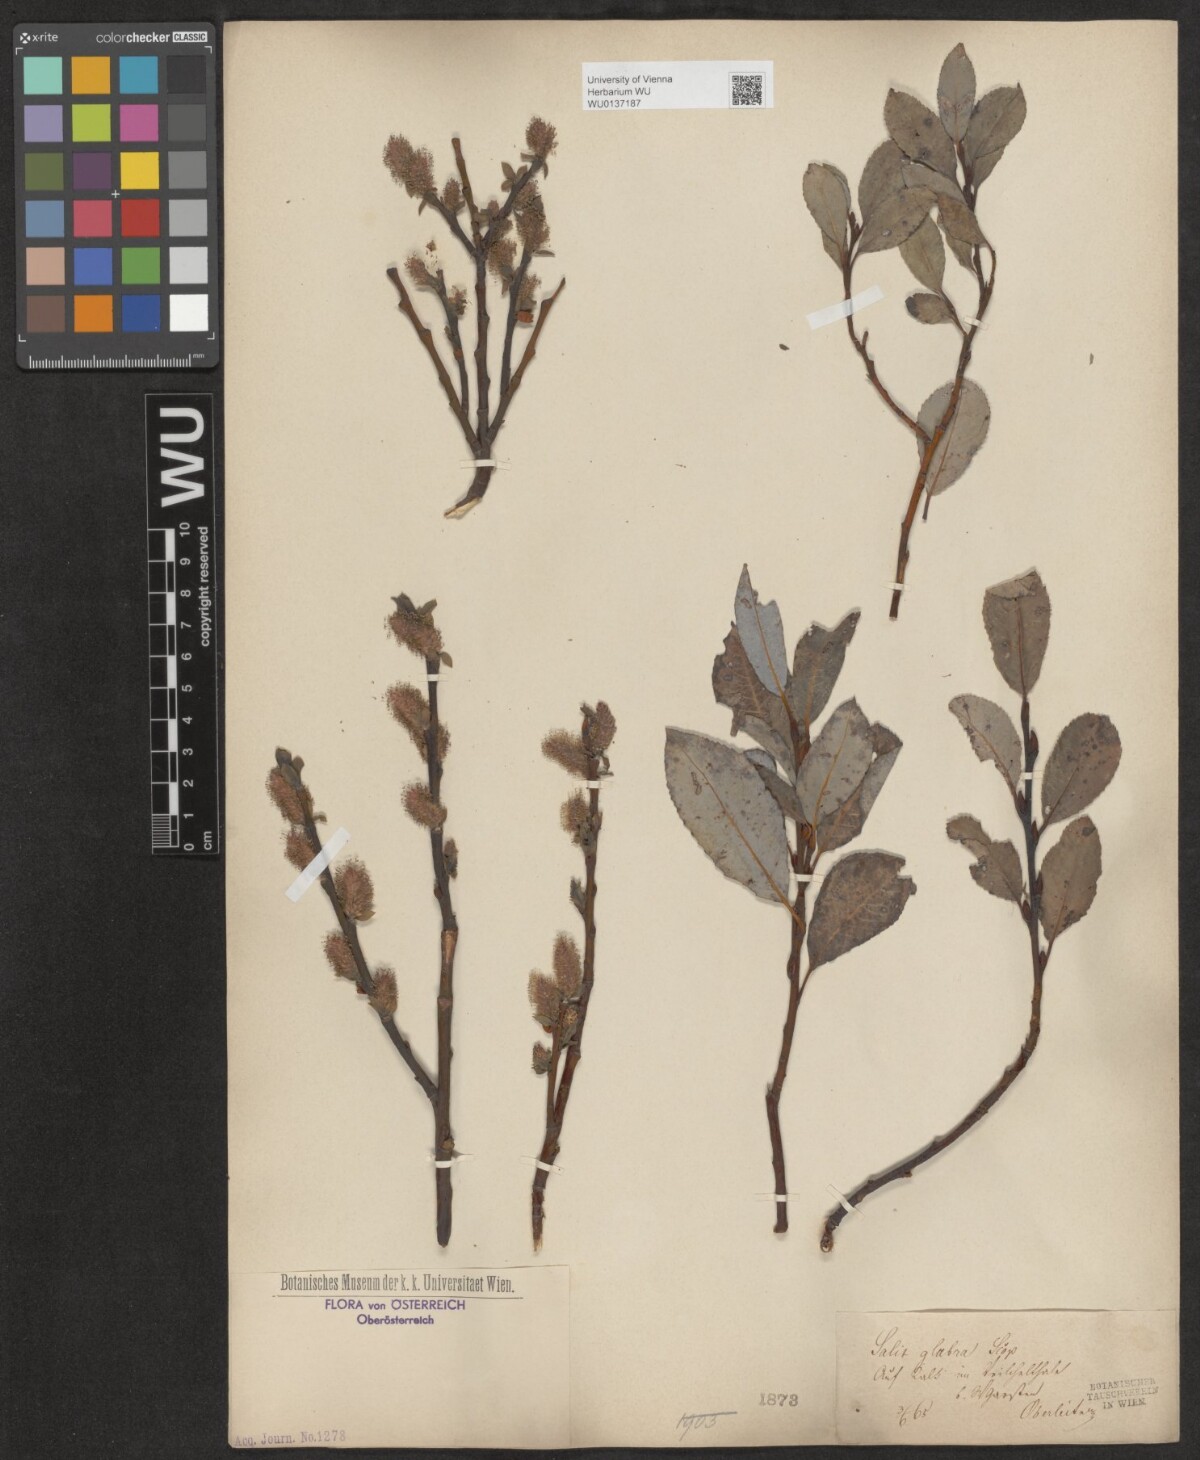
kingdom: Plantae
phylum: Tracheophyta
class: Magnoliopsida
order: Malpighiales
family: Salicaceae
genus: Salix
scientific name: Salix glabra
